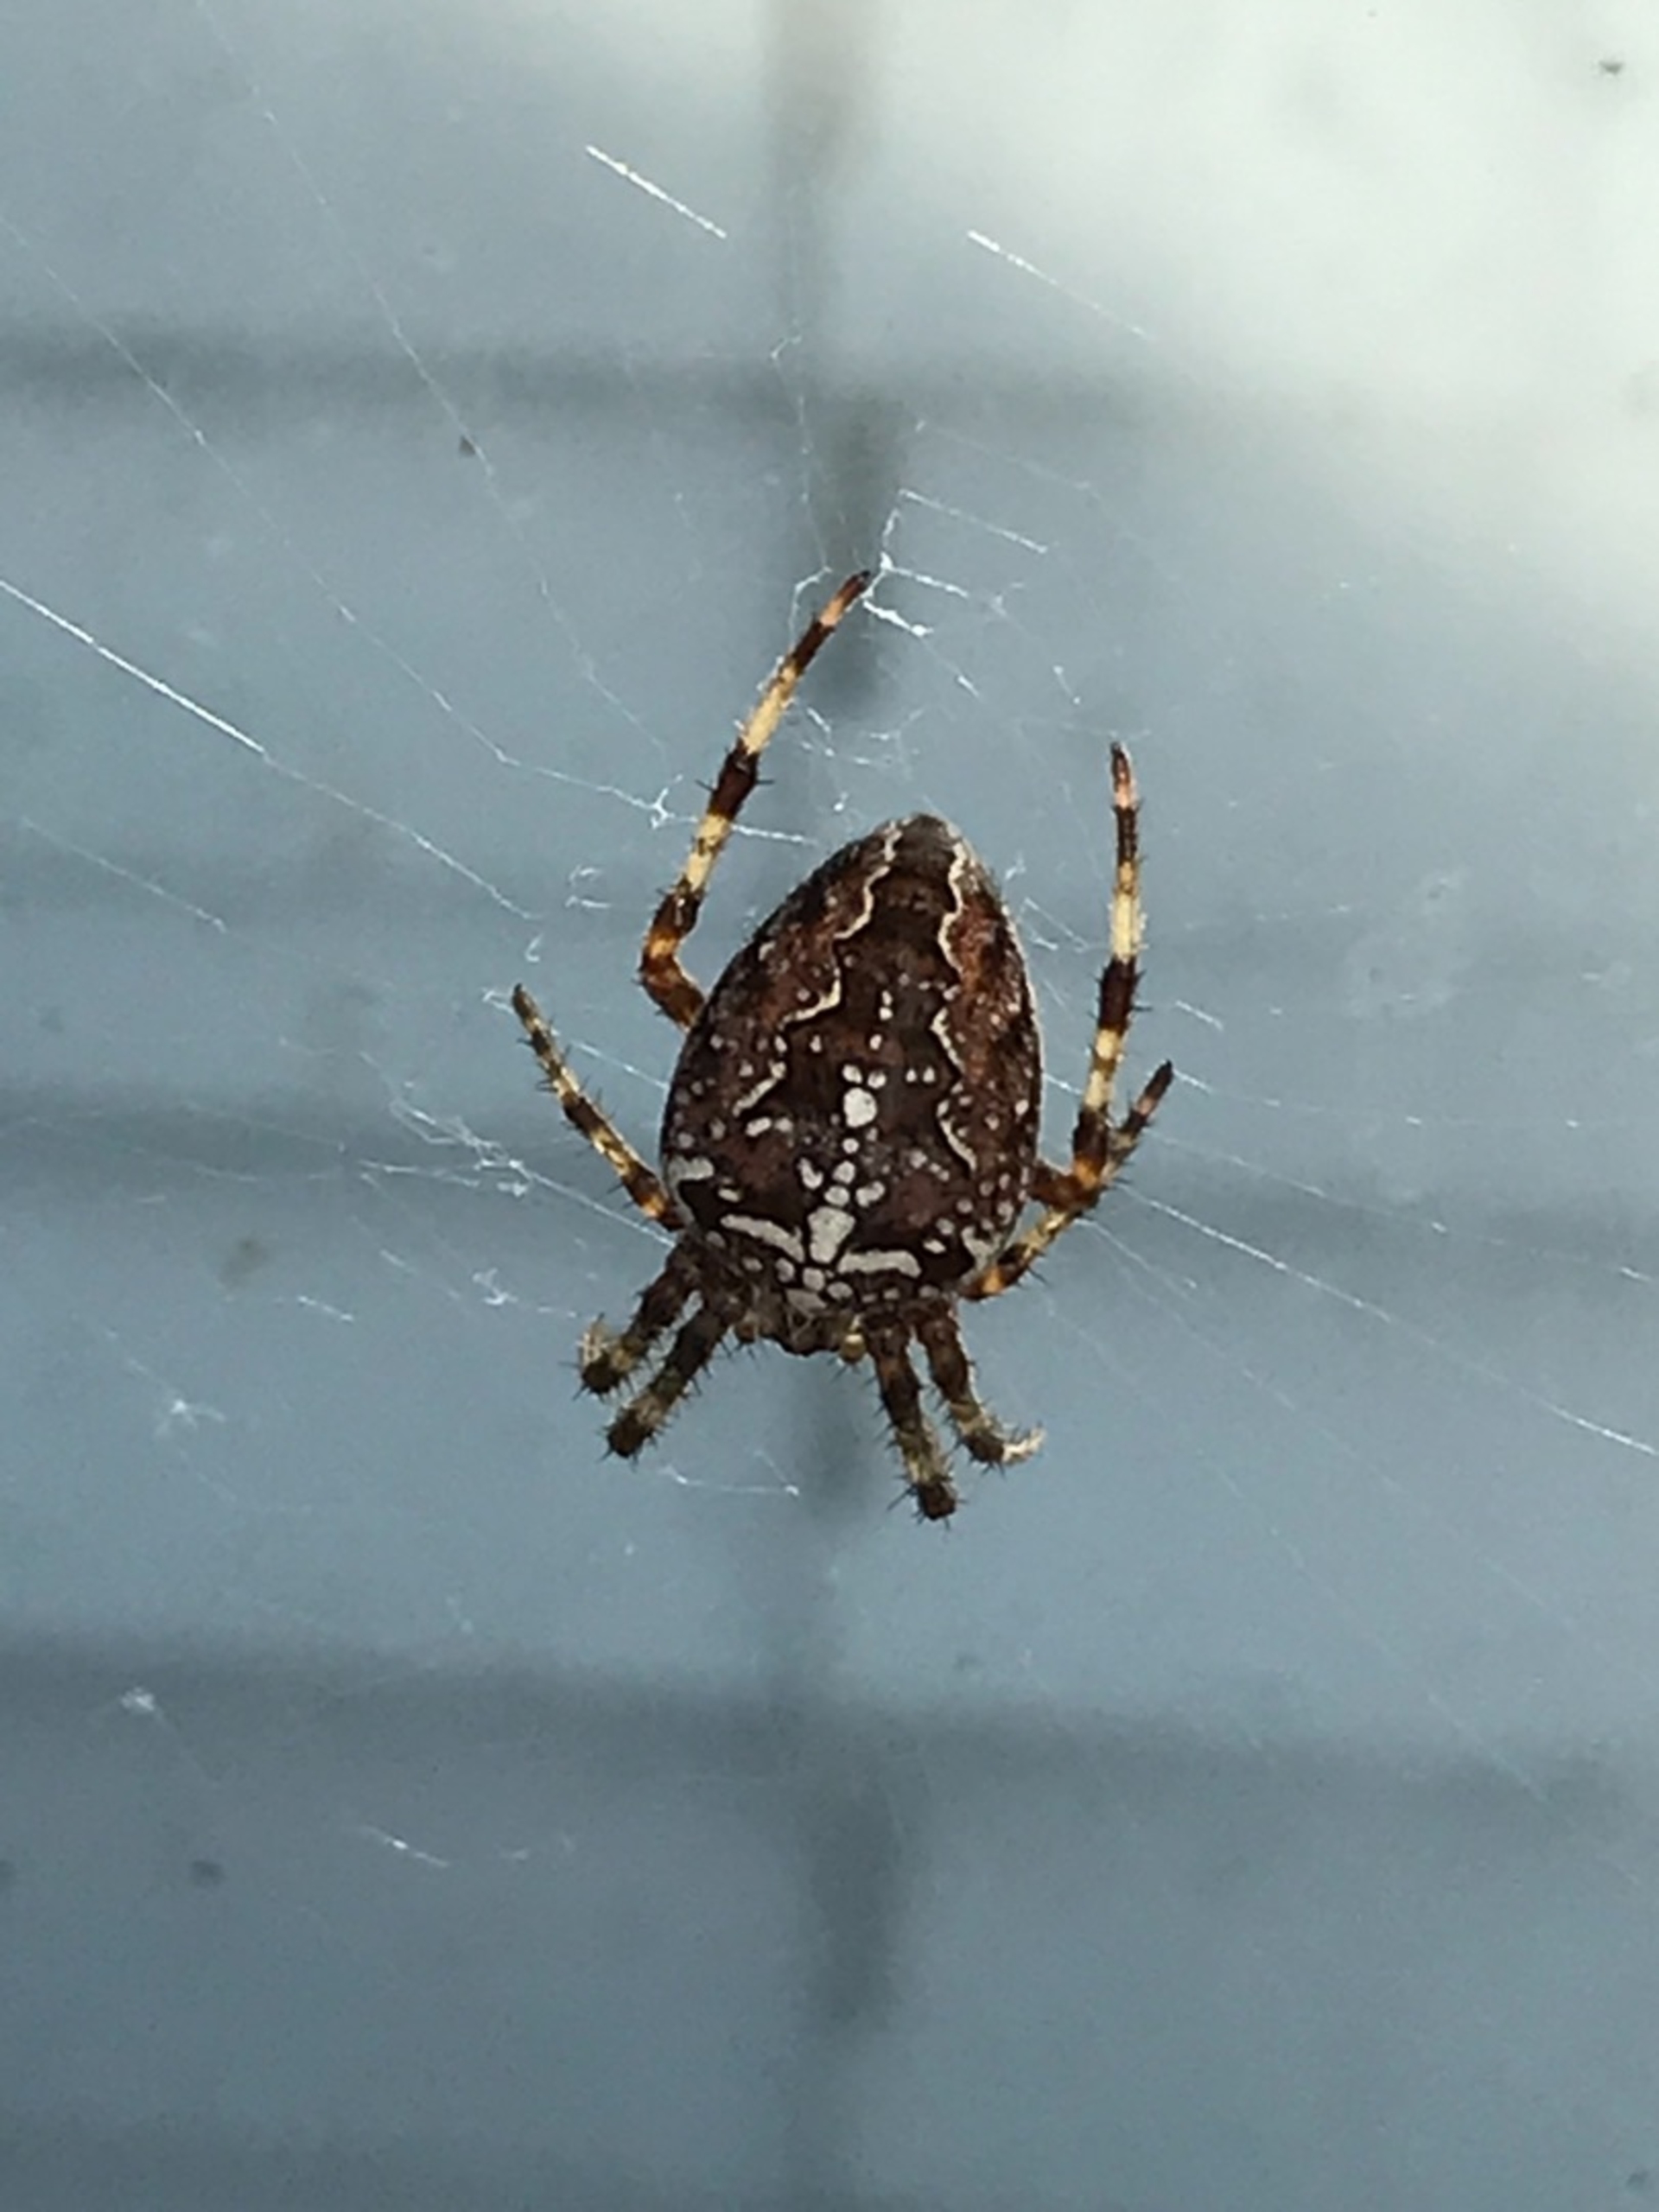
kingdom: Animalia
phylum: Arthropoda
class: Arachnida
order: Araneae
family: Araneidae
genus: Araneus
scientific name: Araneus diadematus
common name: Korsedderkop
